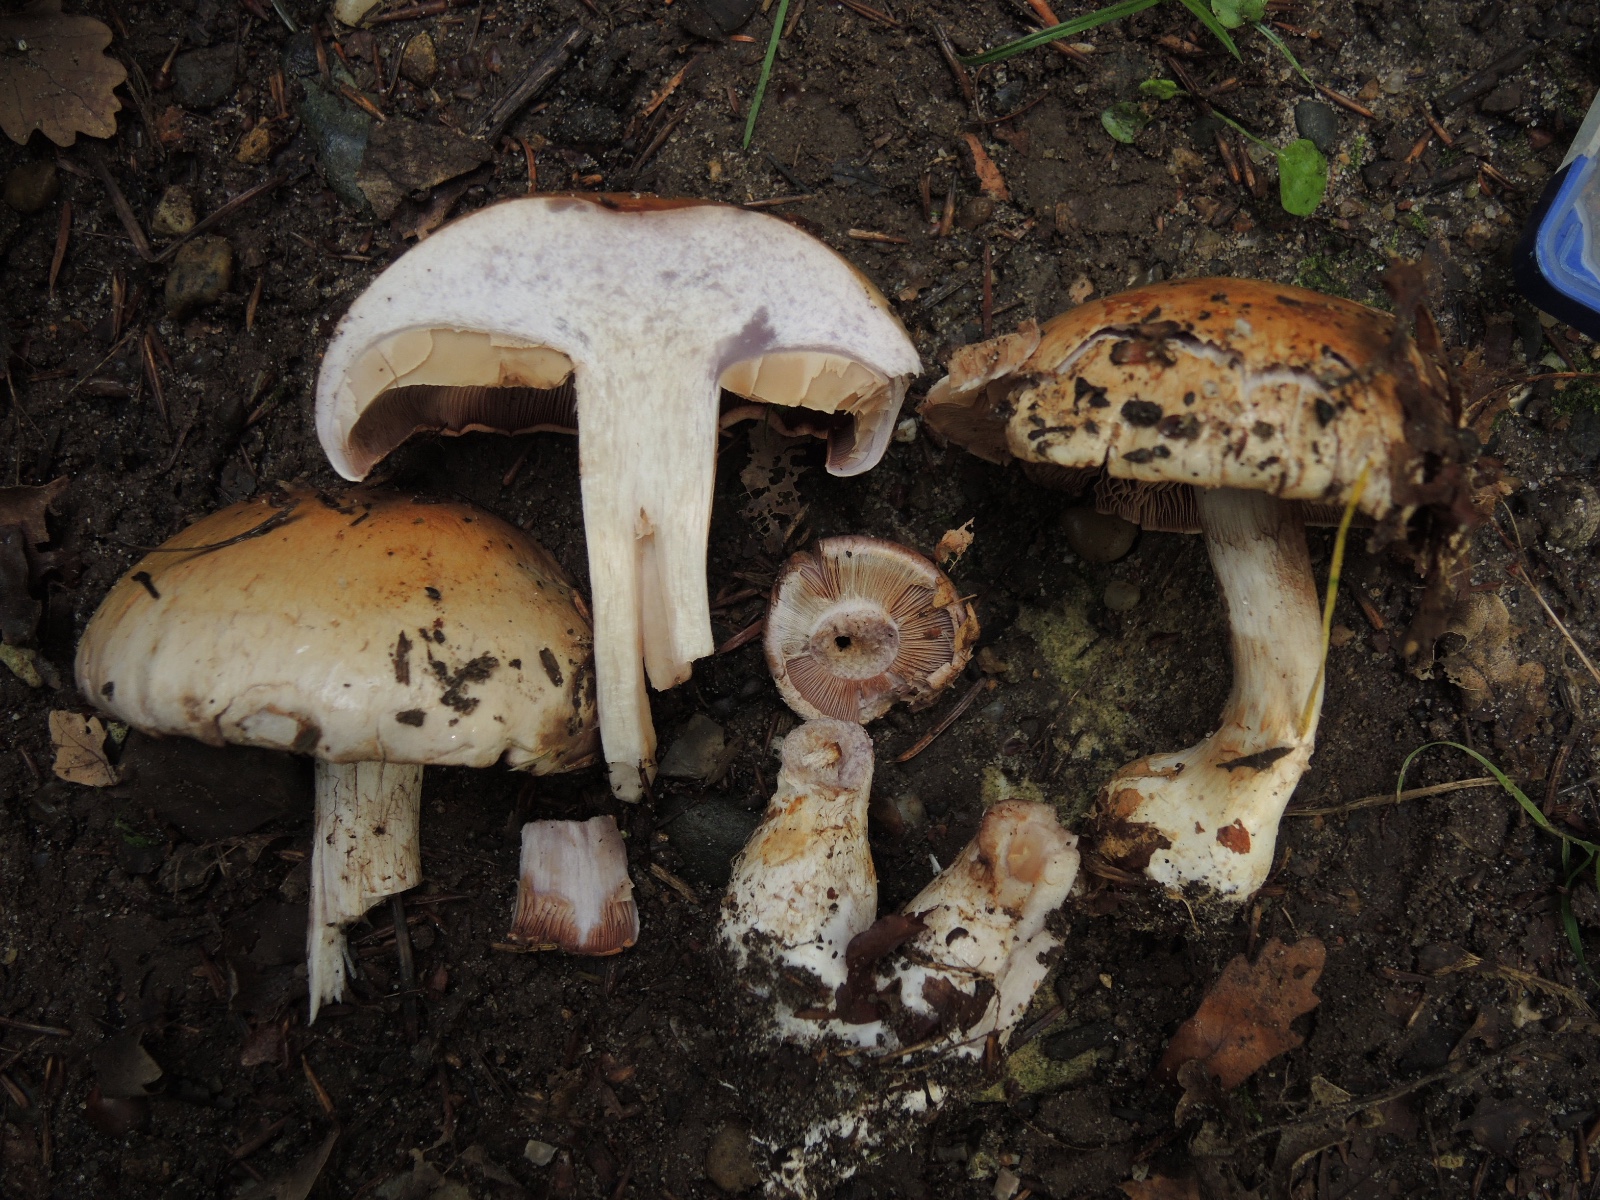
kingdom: Fungi
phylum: Basidiomycota
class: Agaricomycetes
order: Agaricales
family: Cortinariaceae
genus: Cortinarius
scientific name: Cortinarius anserinus
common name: bøge-slørhat
